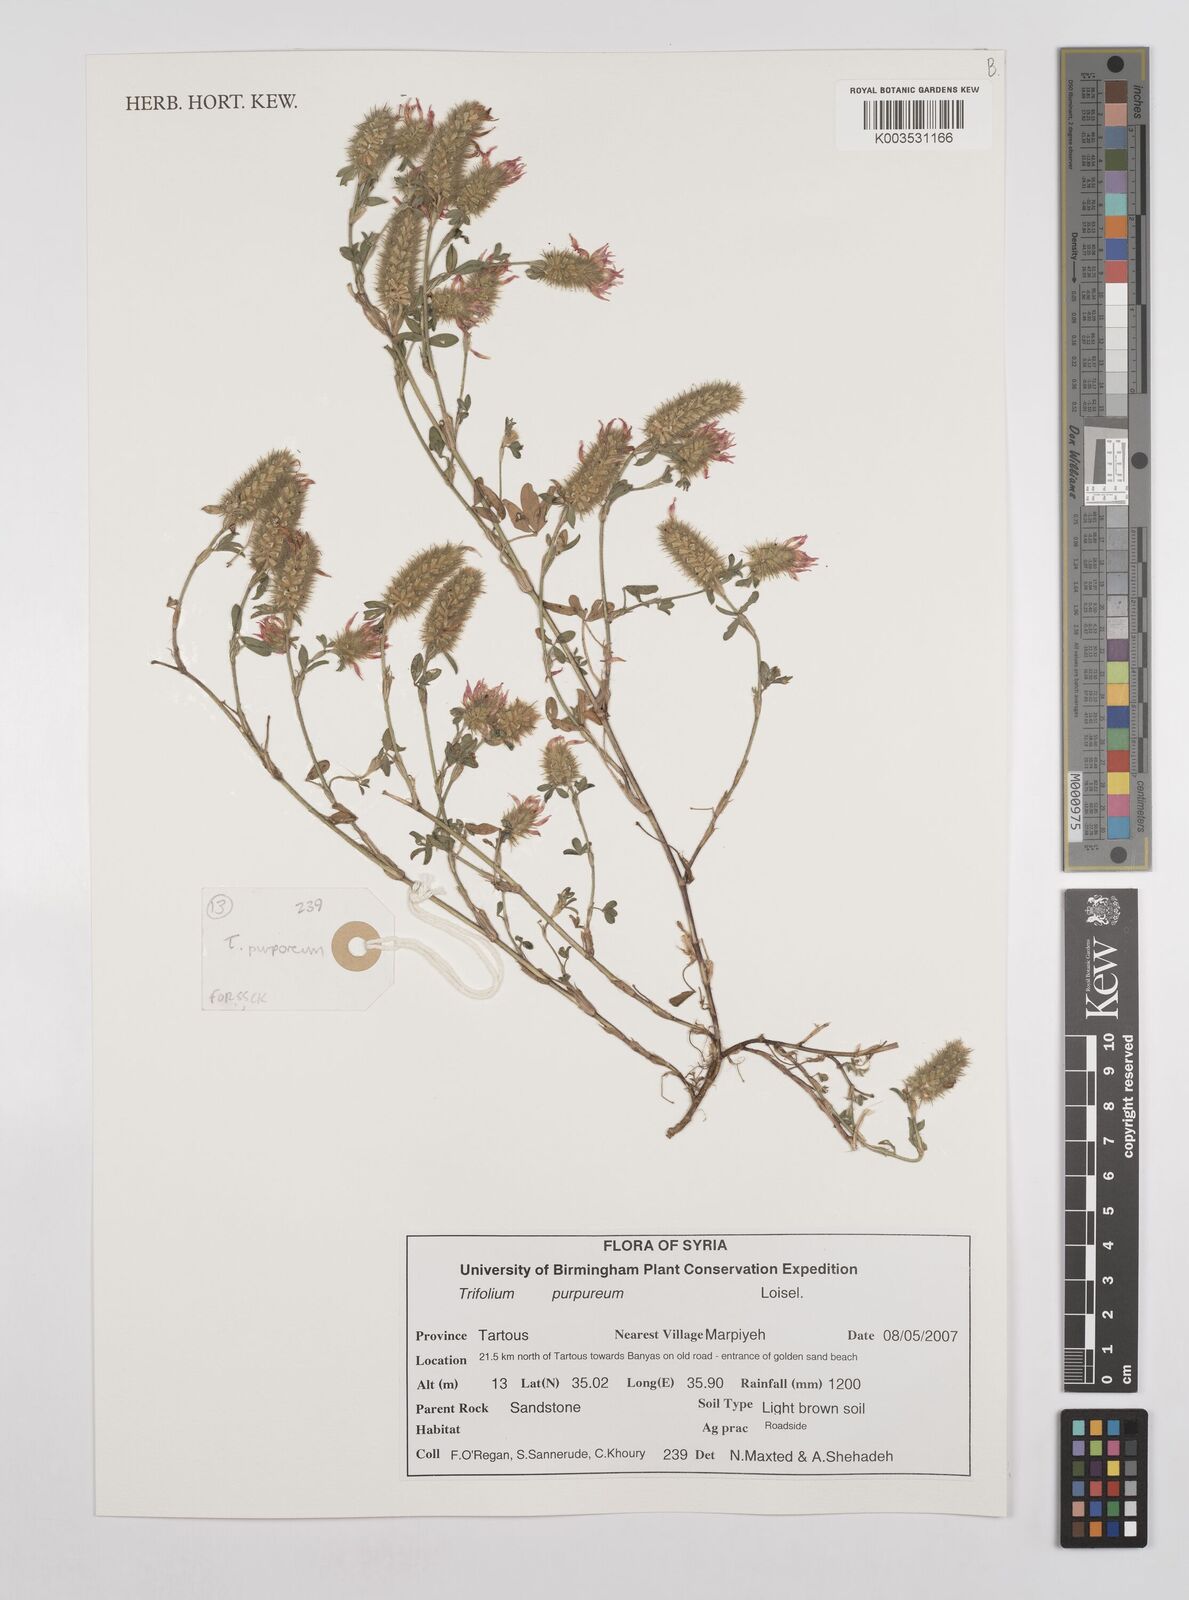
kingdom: Plantae
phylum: Tracheophyta
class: Magnoliopsida
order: Fabales
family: Fabaceae
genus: Trifolium
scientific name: Trifolium purpureum
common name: Purple clover
